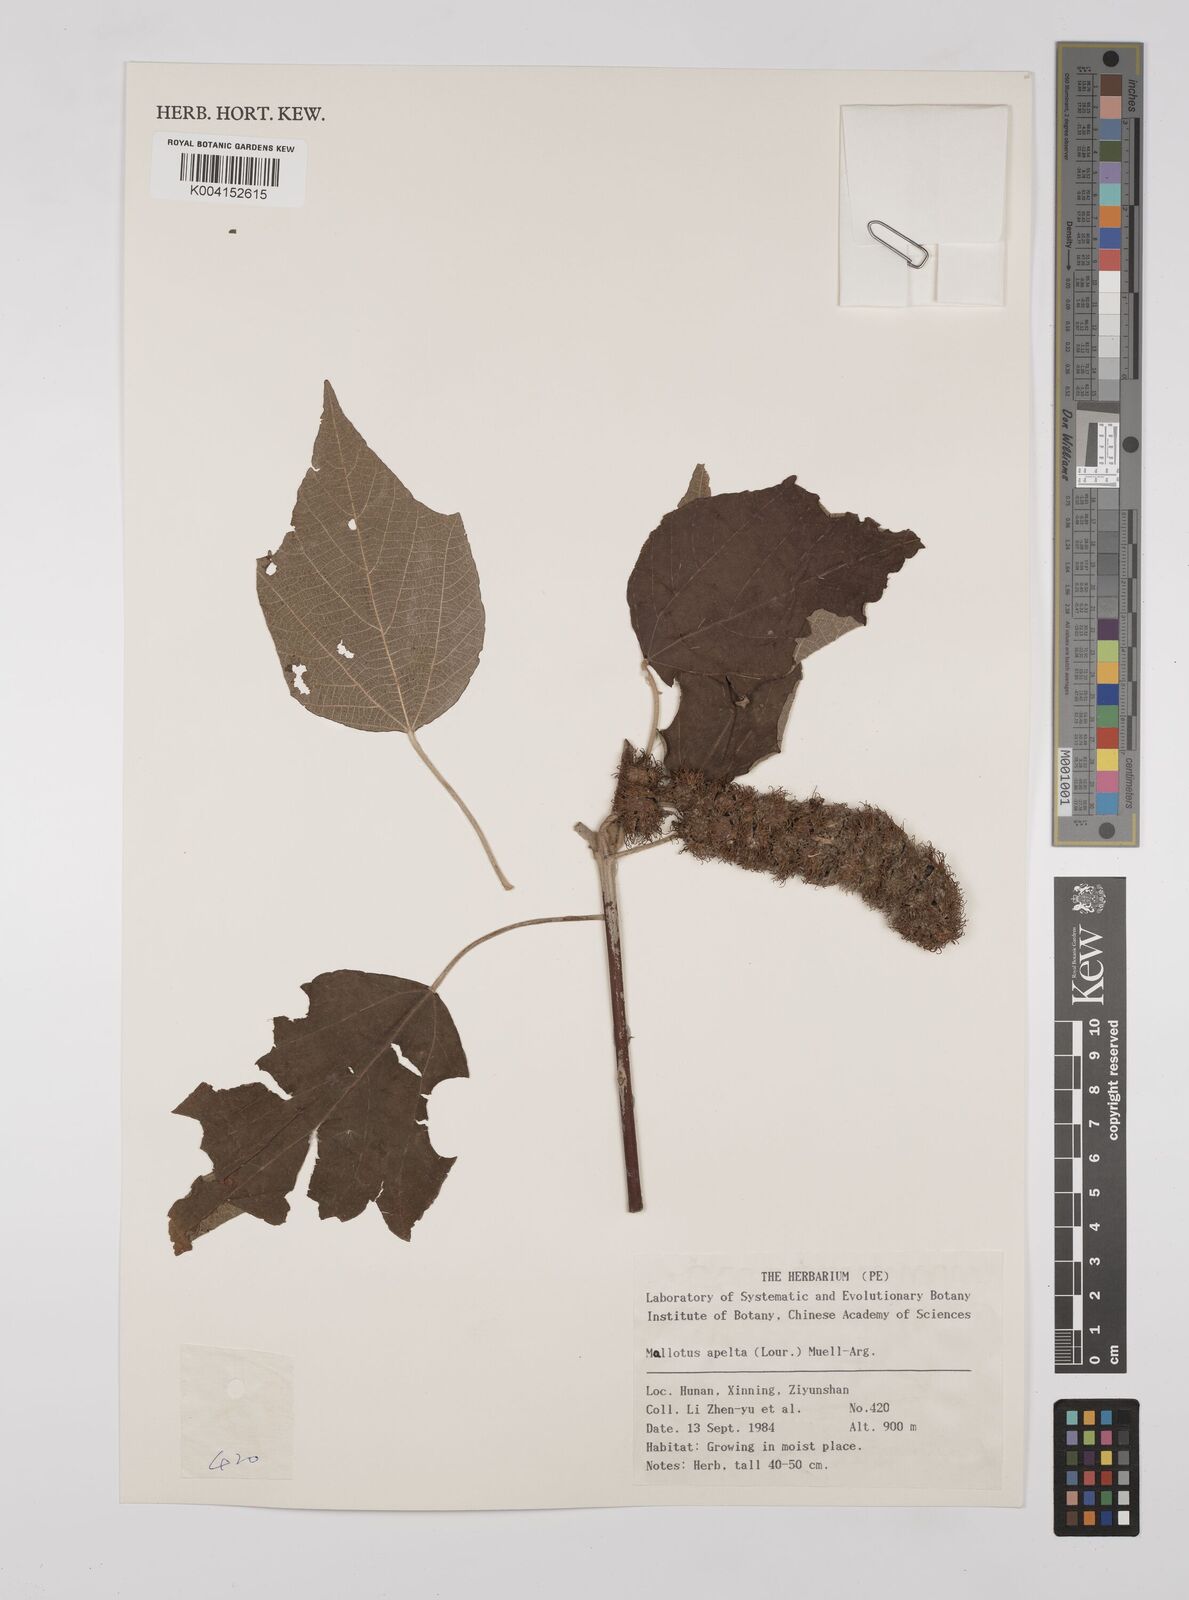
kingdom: Plantae
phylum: Tracheophyta
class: Magnoliopsida
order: Malpighiales
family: Euphorbiaceae
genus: Mallotus
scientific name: Mallotus apelta
